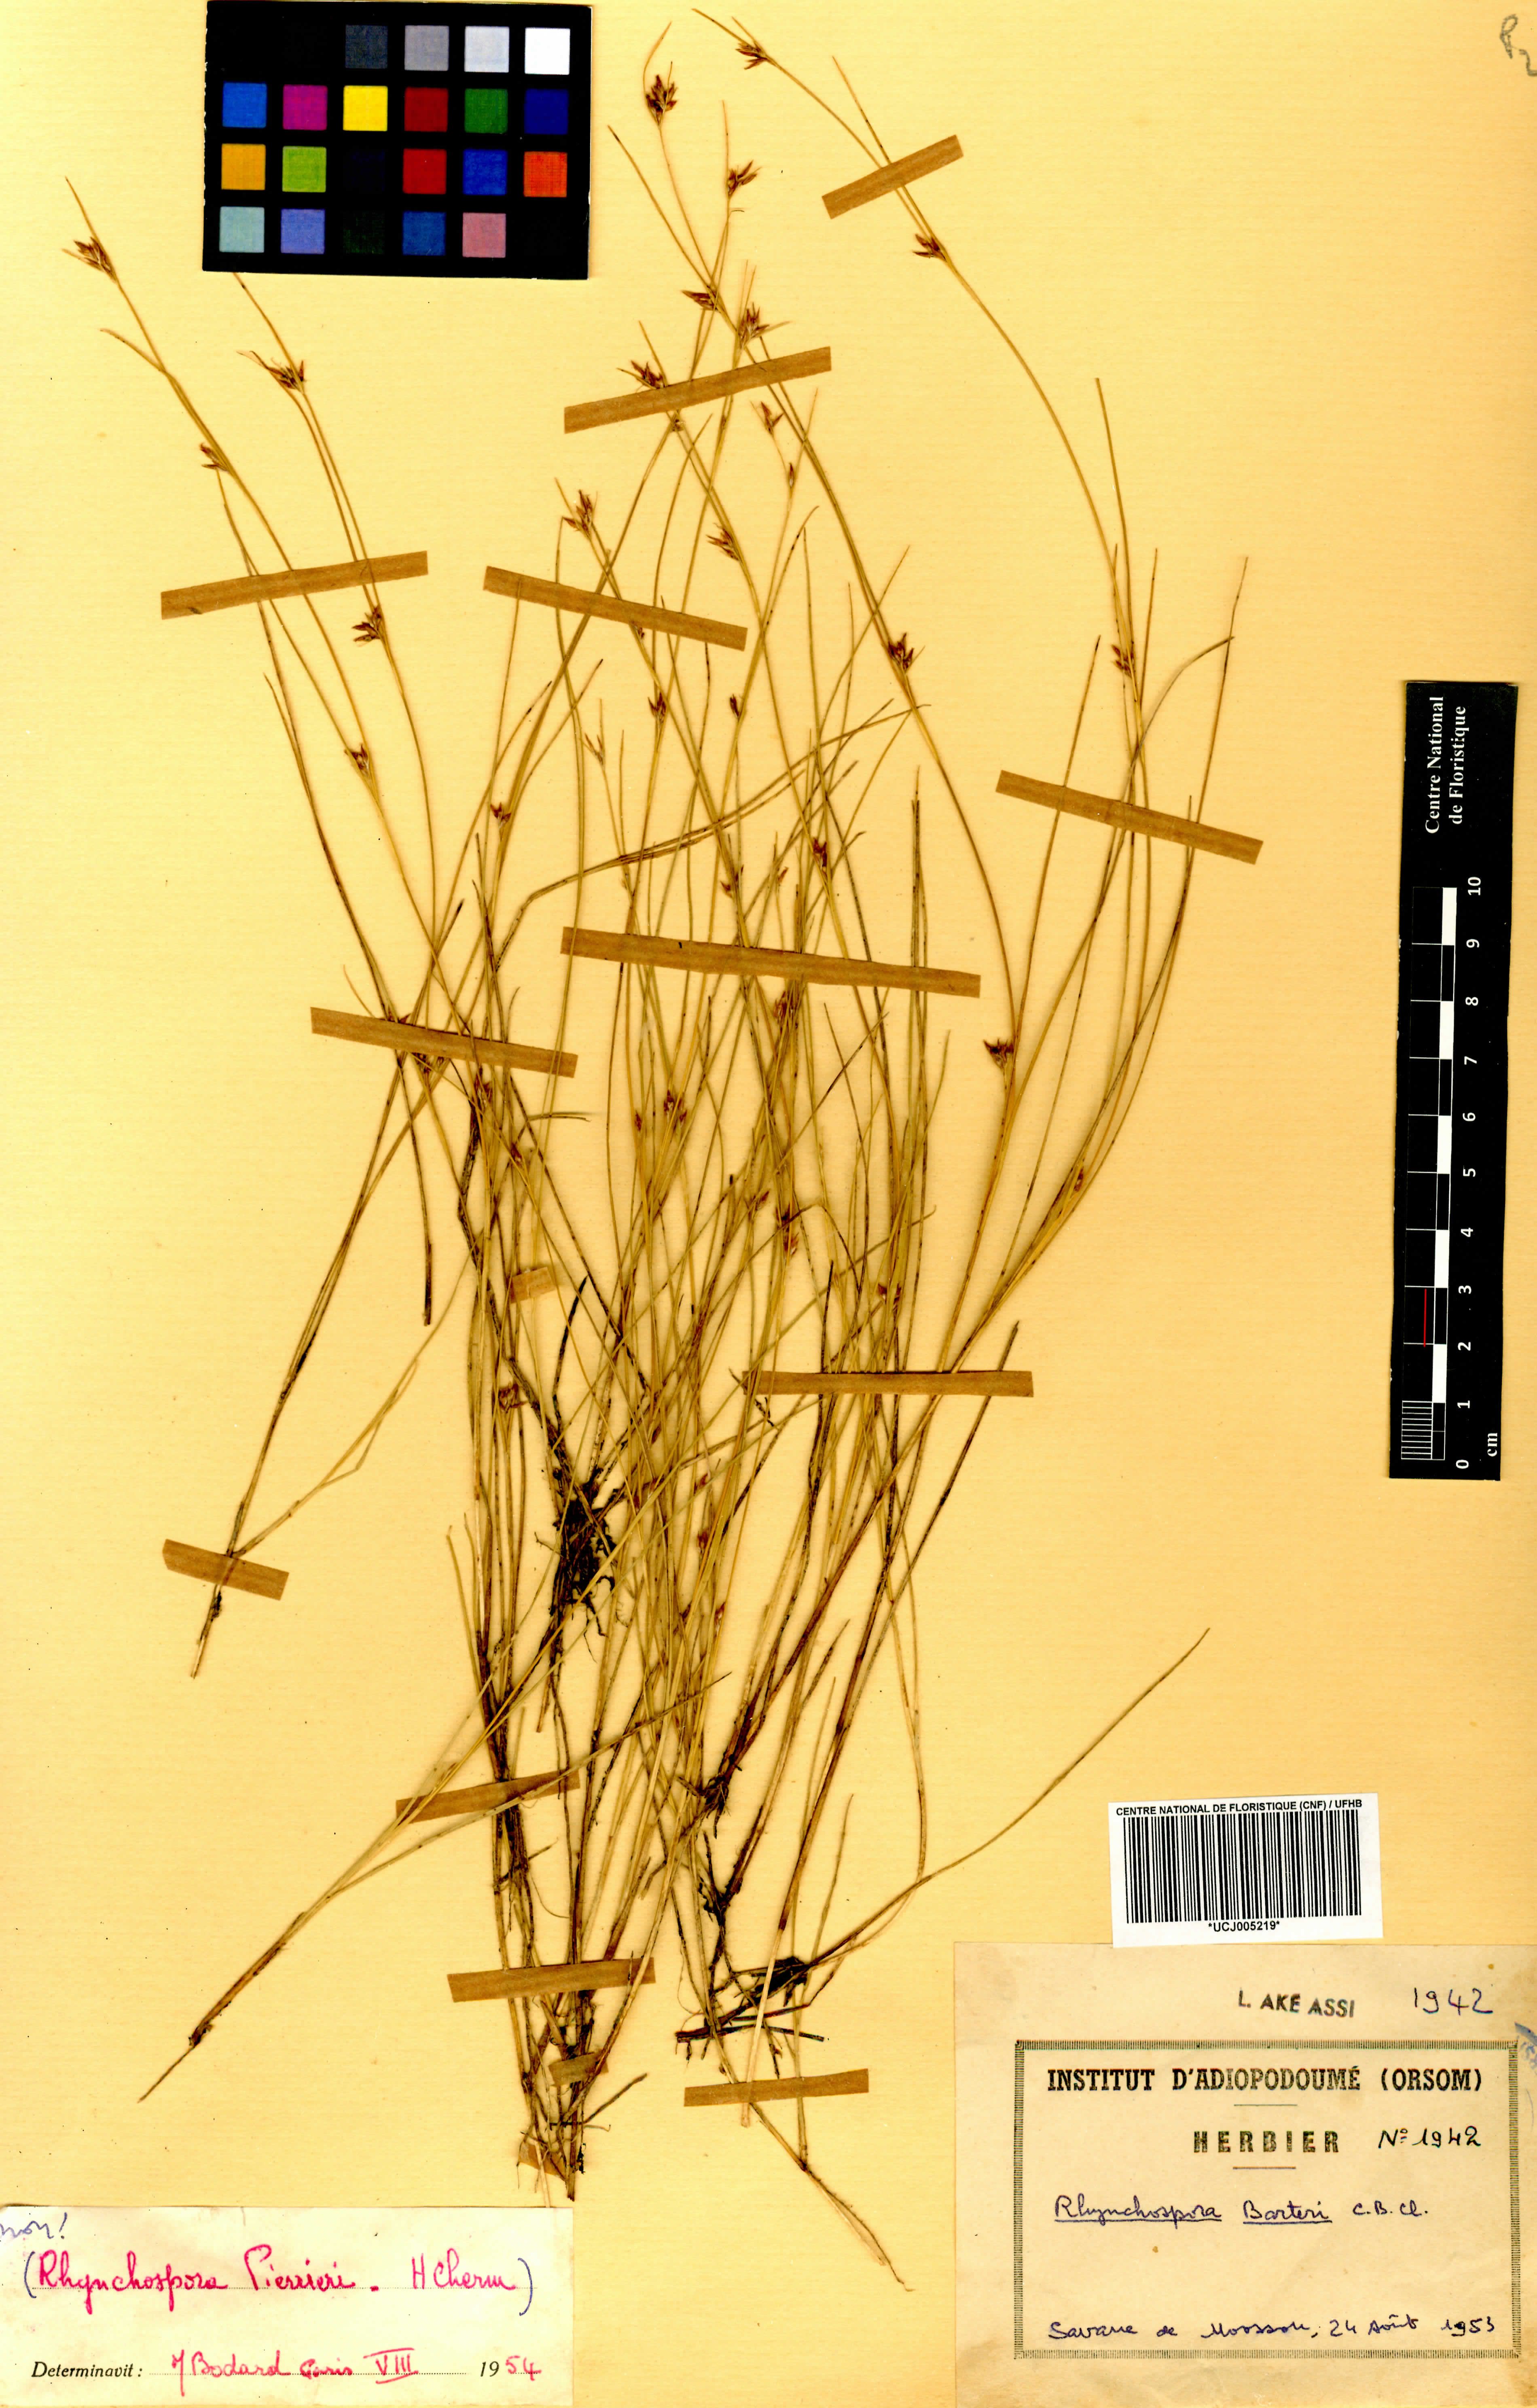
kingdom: Plantae
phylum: Tracheophyta
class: Liliopsida
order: Poales
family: Cyperaceae
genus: Rhynchospora
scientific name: Rhynchospora barteri
